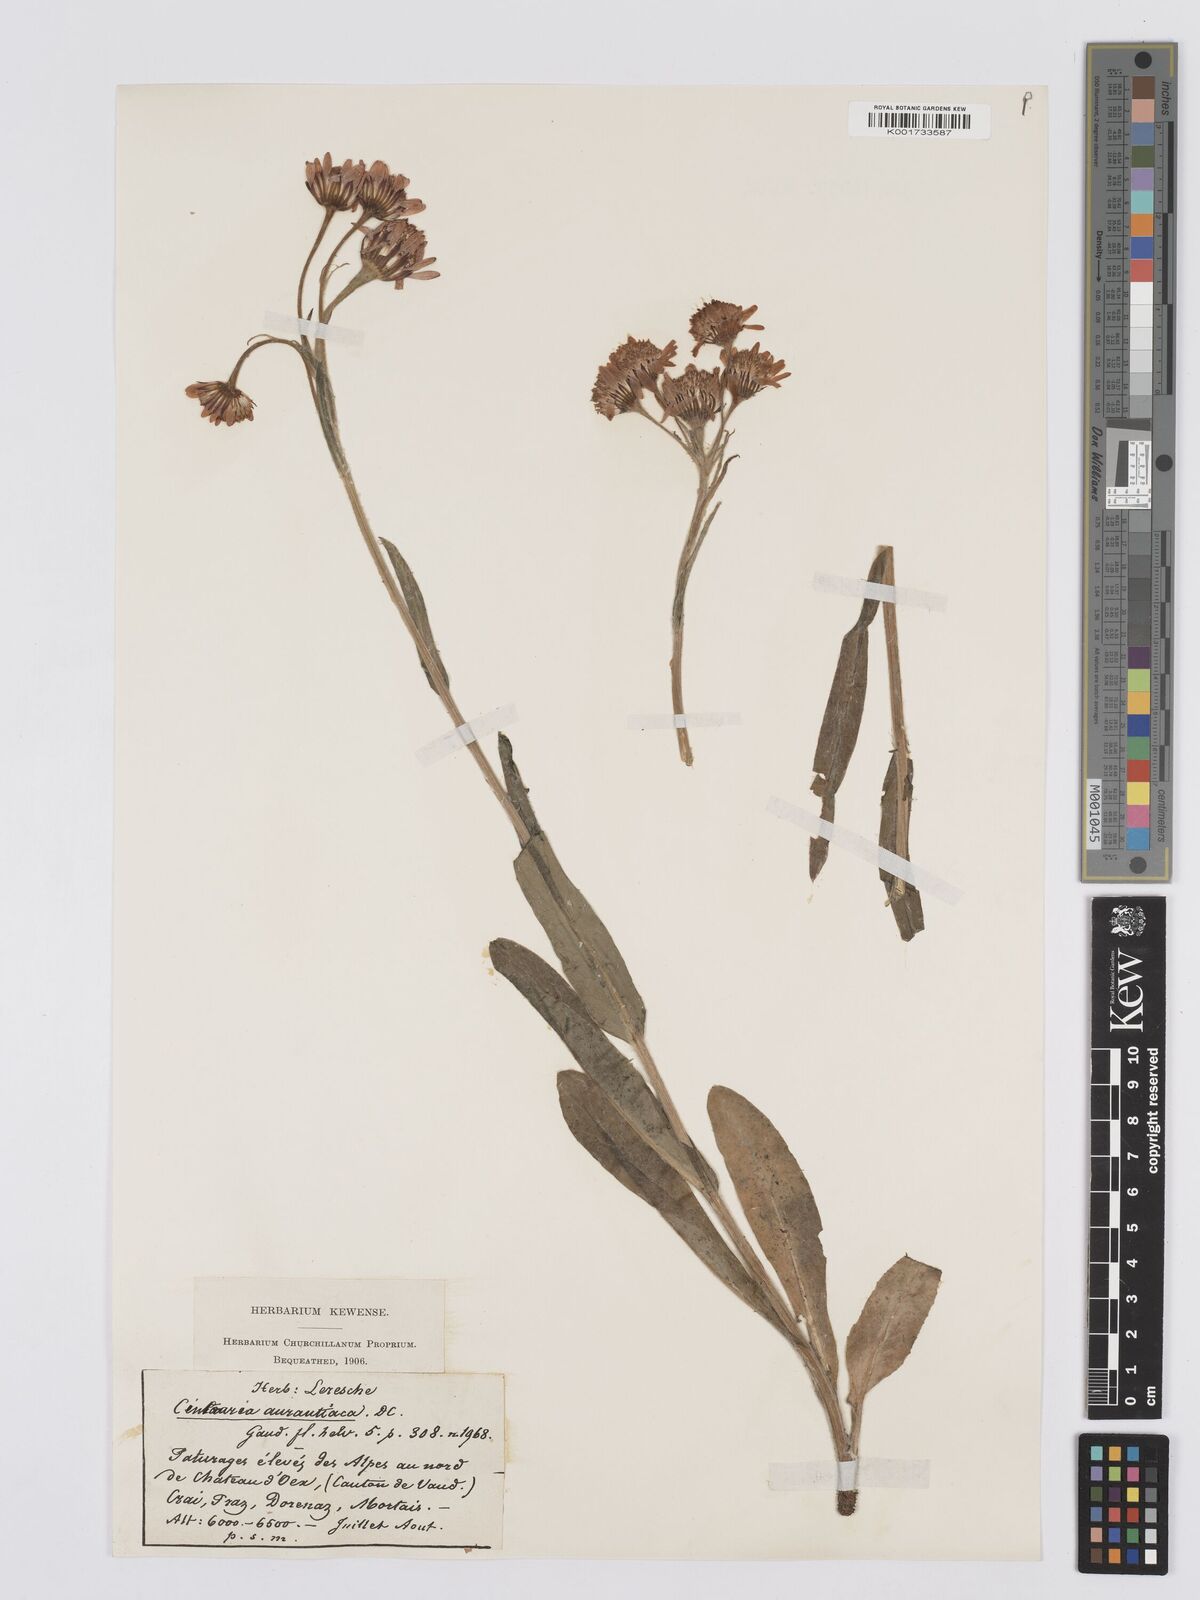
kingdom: Plantae
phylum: Tracheophyta
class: Magnoliopsida
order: Asterales
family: Asteraceae
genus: Tephroseris
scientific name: Tephroseris aurantiaca
